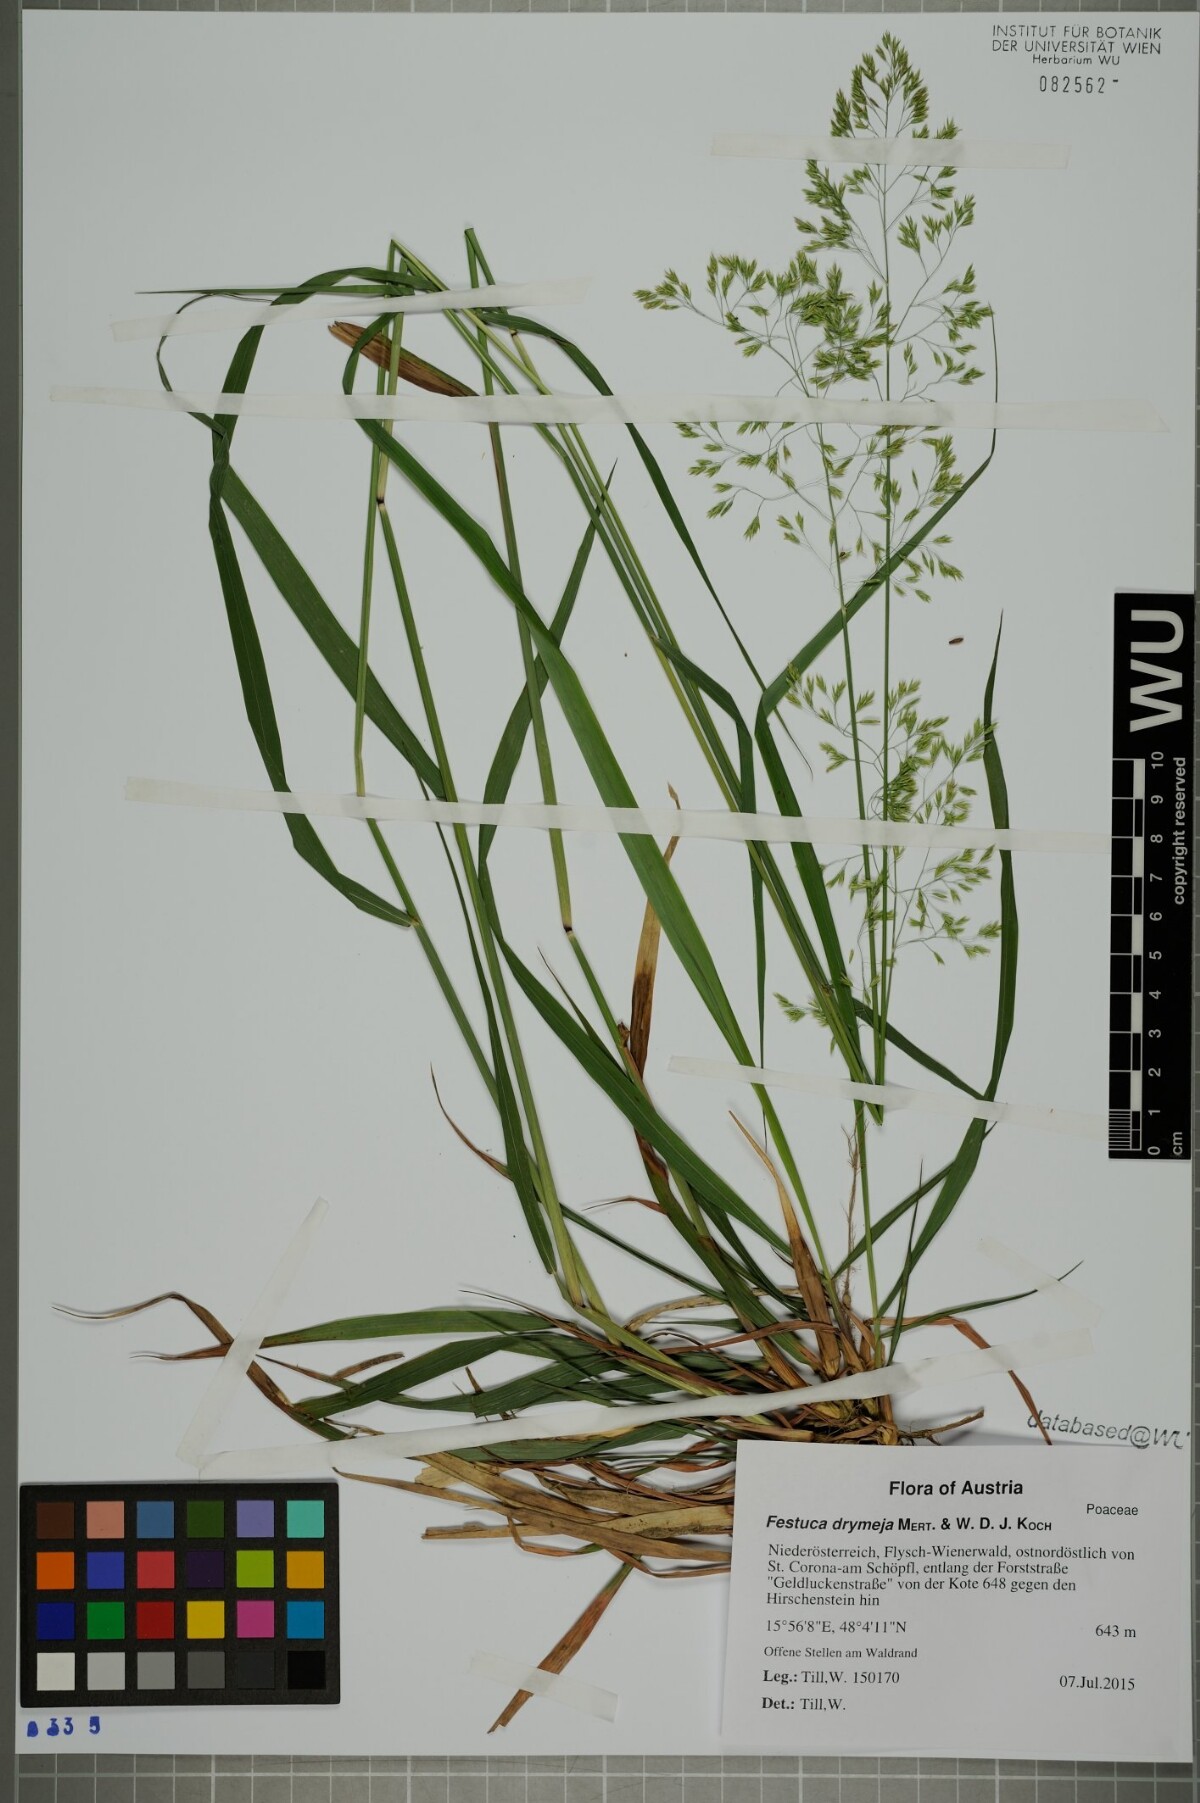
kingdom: Plantae
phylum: Tracheophyta
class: Liliopsida
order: Poales
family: Poaceae
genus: Festuca
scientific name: Festuca drymeja
